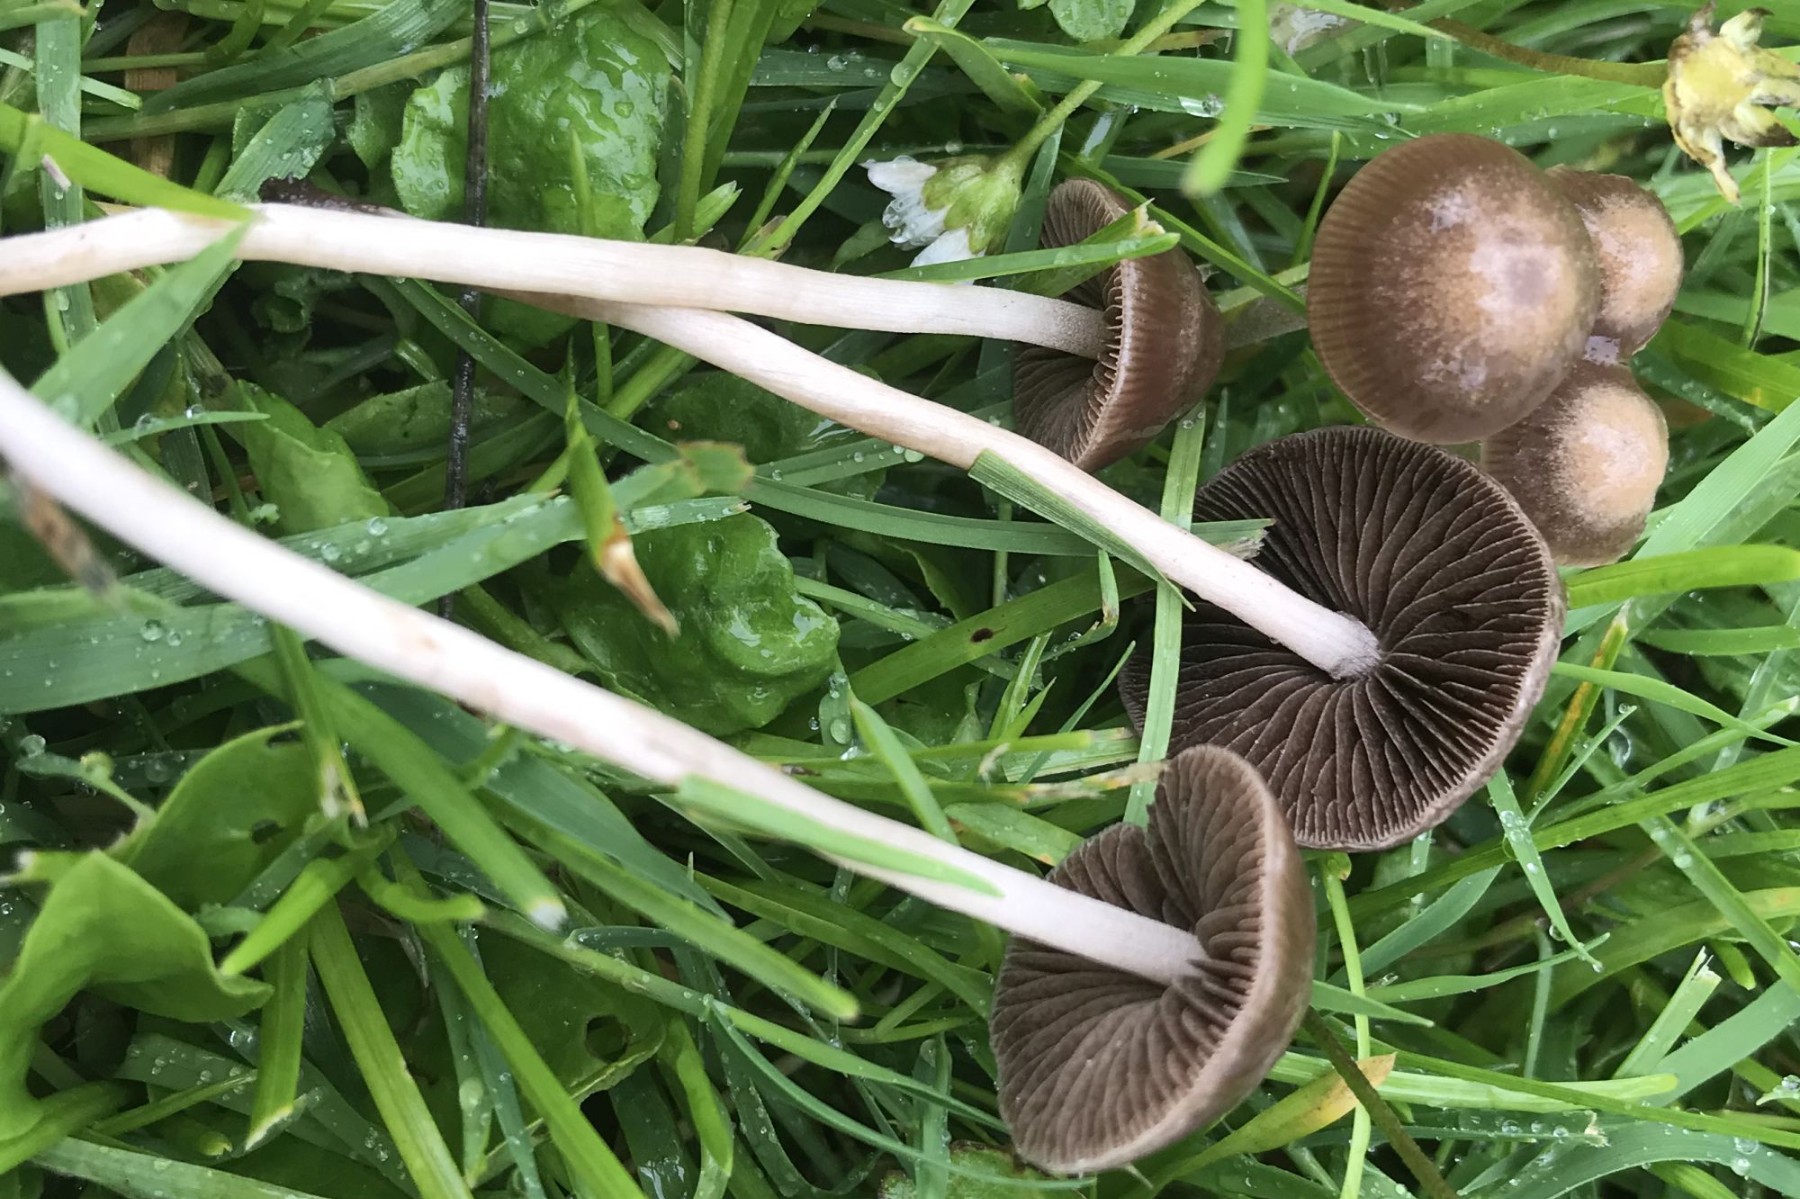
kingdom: Fungi
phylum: Basidiomycota
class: Agaricomycetes
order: Agaricales
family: Bolbitiaceae
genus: Panaeolina
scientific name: Panaeolina foenisecii
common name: høslætsvamp
